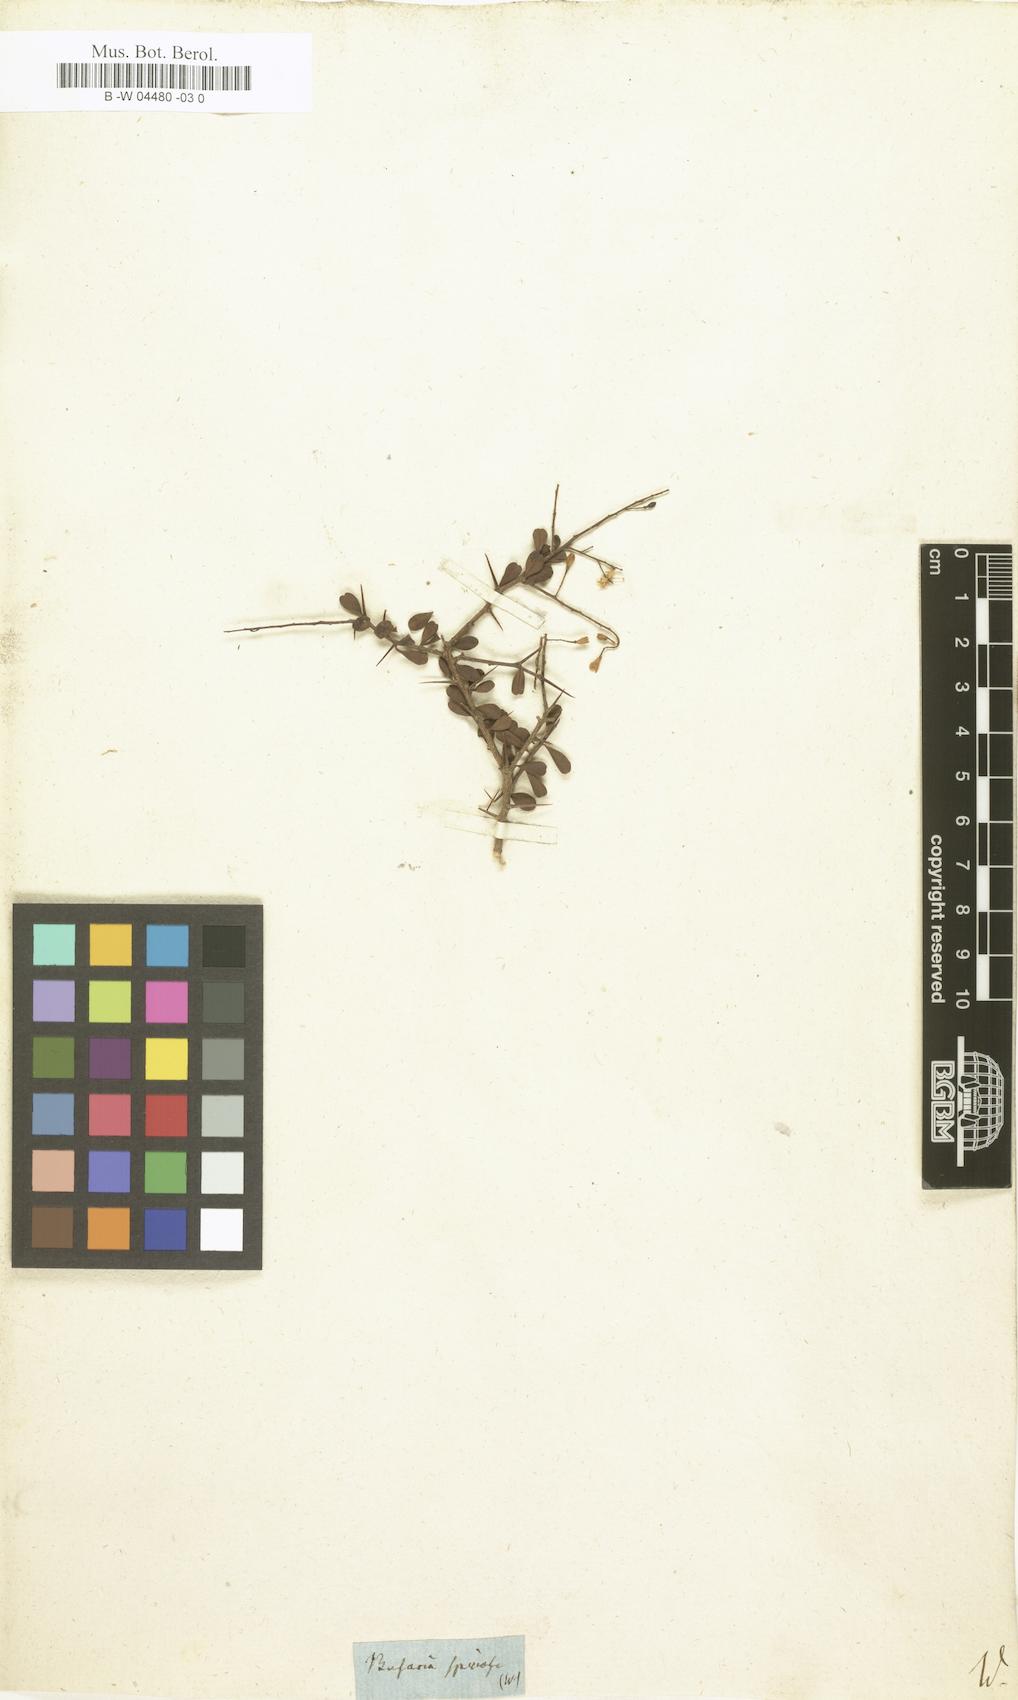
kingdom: Plantae
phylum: Tracheophyta
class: Magnoliopsida
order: Apiales
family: Pittosporaceae
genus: Bursaria
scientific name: Bursaria spinosa
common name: Australian blackthorn
